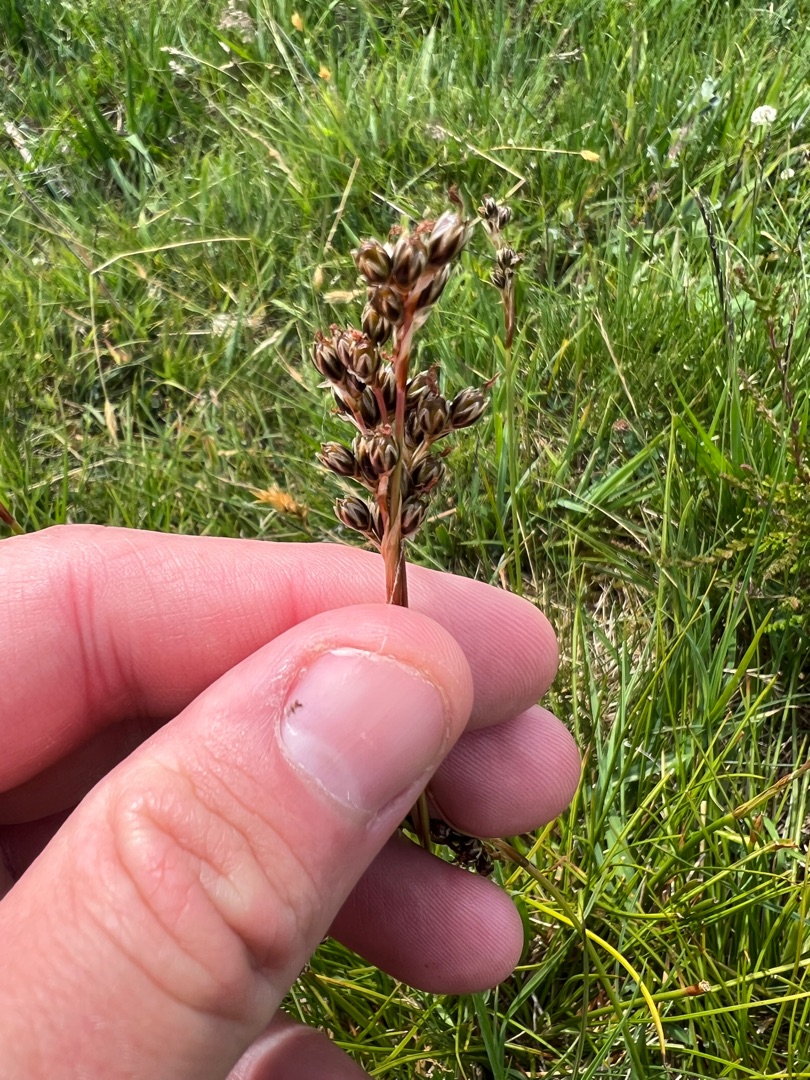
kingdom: Plantae
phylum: Tracheophyta
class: Liliopsida
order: Poales
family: Juncaceae
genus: Juncus
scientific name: Juncus squarrosus
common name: Børste-siv
